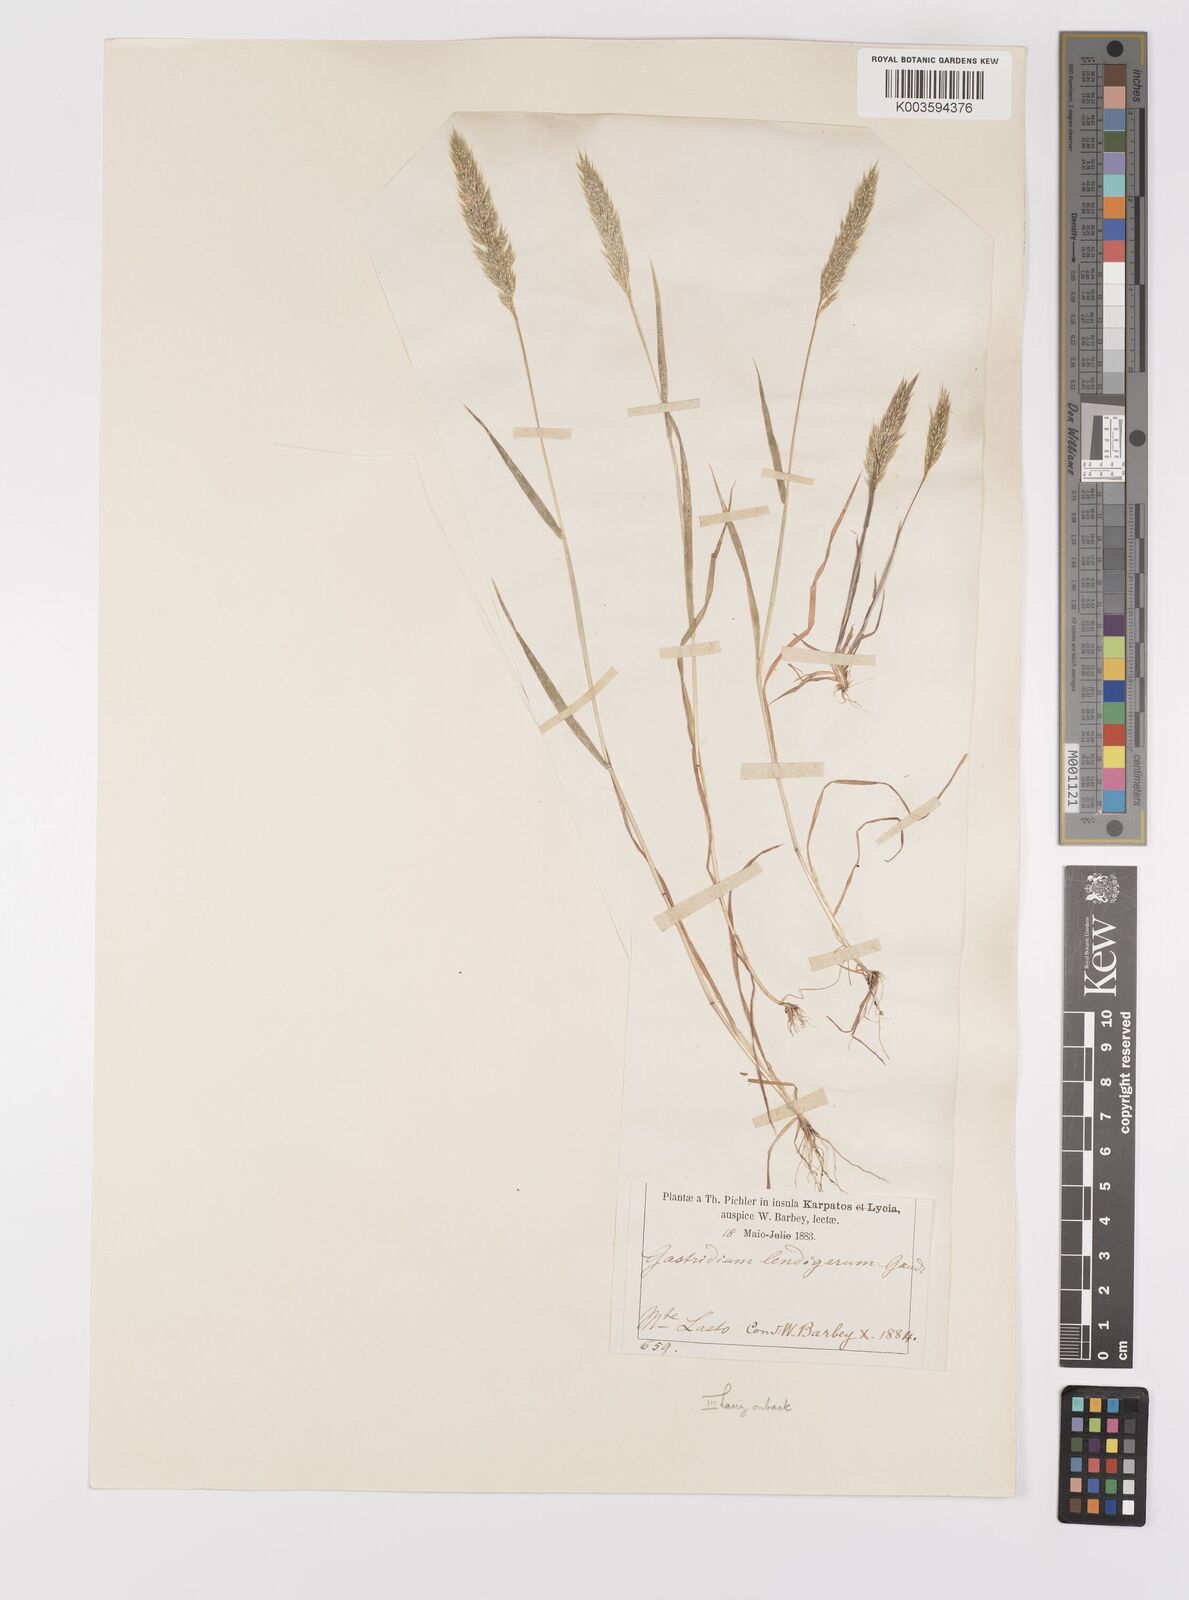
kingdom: Plantae
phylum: Tracheophyta
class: Liliopsida
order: Poales
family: Poaceae
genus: Gastridium
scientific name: Gastridium phleoides
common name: Nit grass
